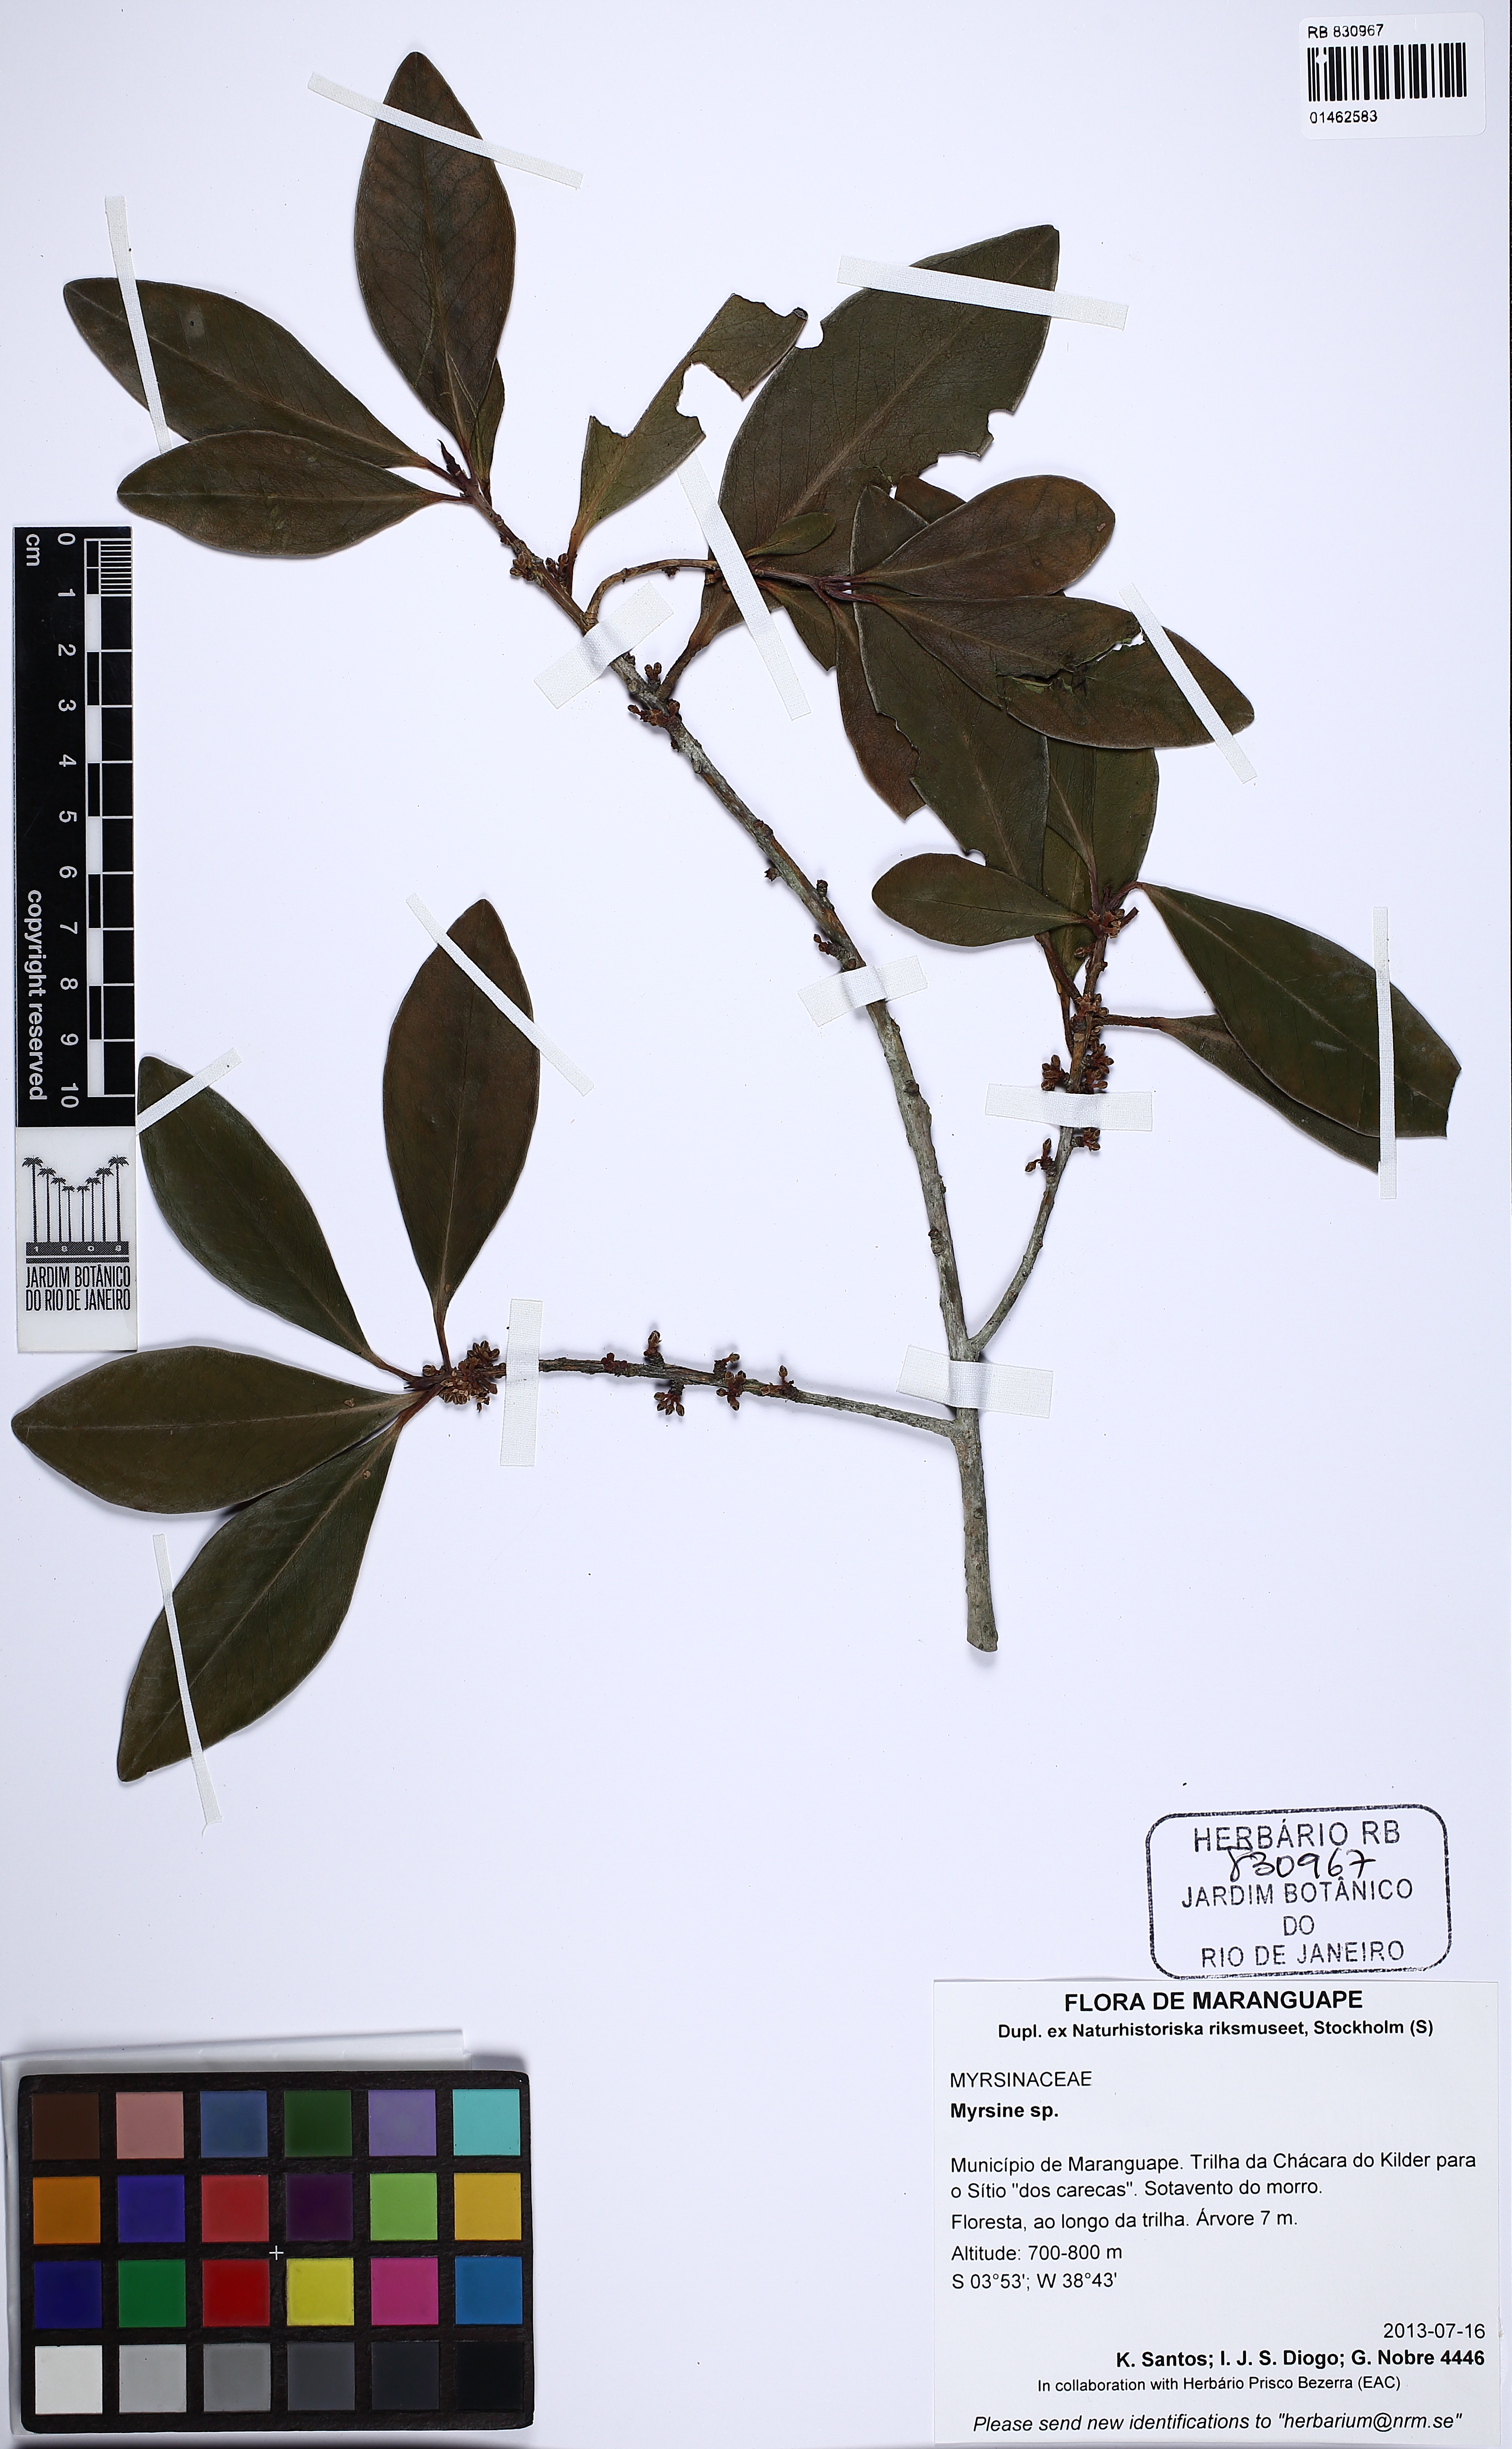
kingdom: Plantae
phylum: Tracheophyta
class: Magnoliopsida
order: Ericales
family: Primulaceae
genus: Myrsine
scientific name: Myrsine
